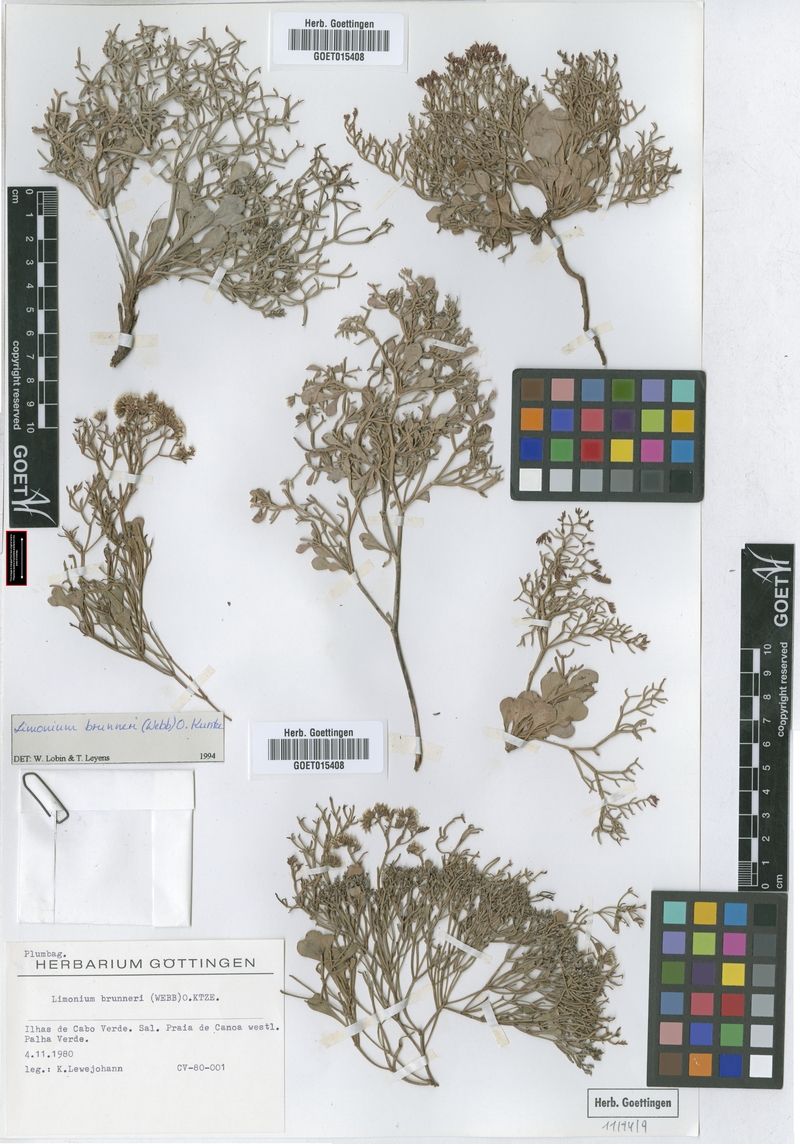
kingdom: Plantae
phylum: Tracheophyta
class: Magnoliopsida
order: Caryophyllales
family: Plumbaginaceae
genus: Limonium
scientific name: Limonium brunneri
